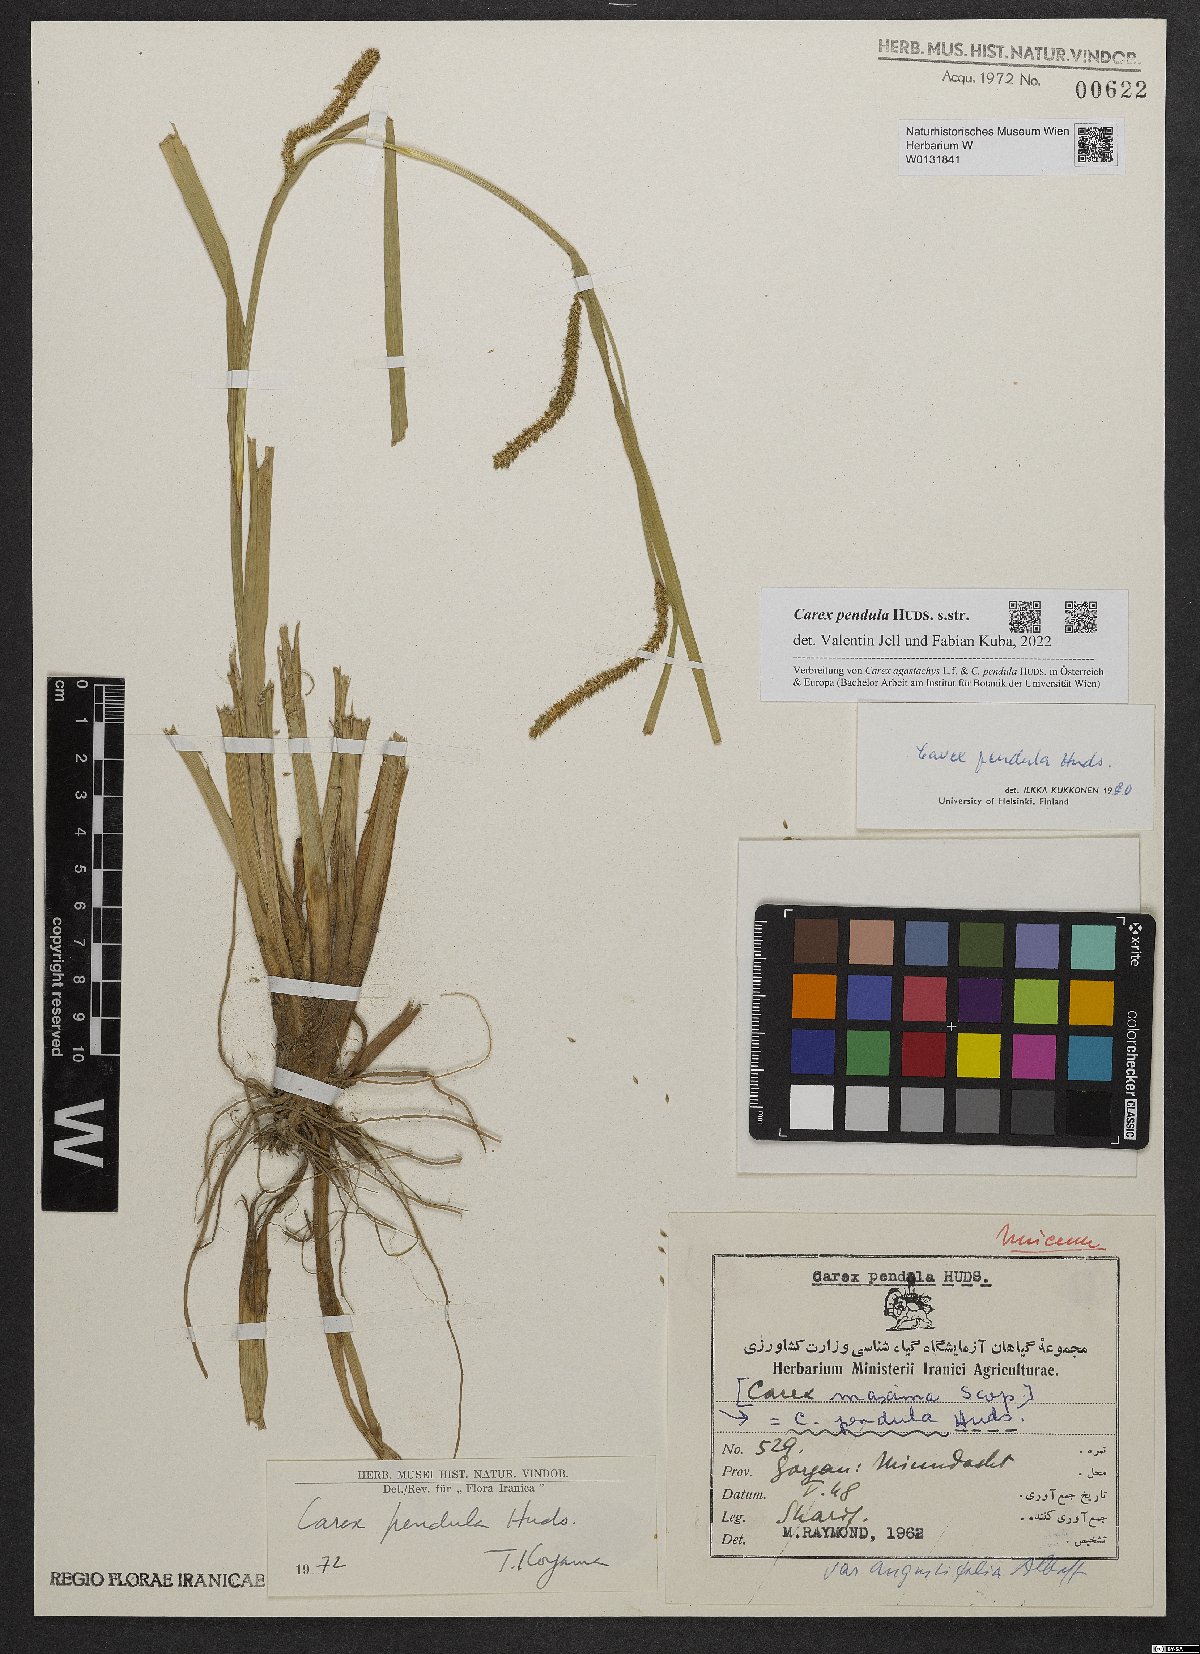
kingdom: Plantae
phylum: Tracheophyta
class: Liliopsida
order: Poales
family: Cyperaceae
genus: Carex
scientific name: Carex pendula
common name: Pendulous sedge
